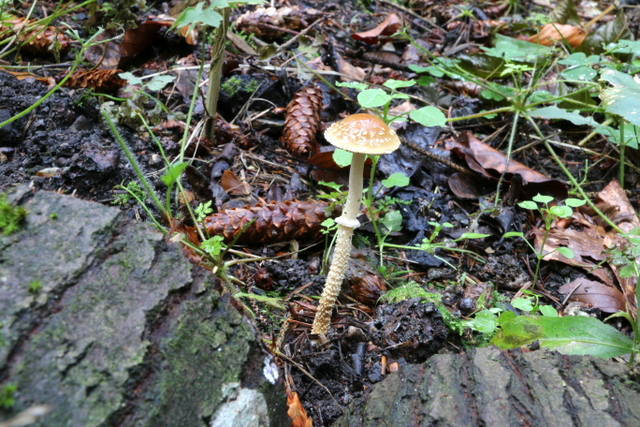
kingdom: Fungi
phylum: Basidiomycota
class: Agaricomycetes
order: Agaricales
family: Strophariaceae
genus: Leratiomyces
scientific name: Leratiomyces squamosus
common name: skællet bredblad
